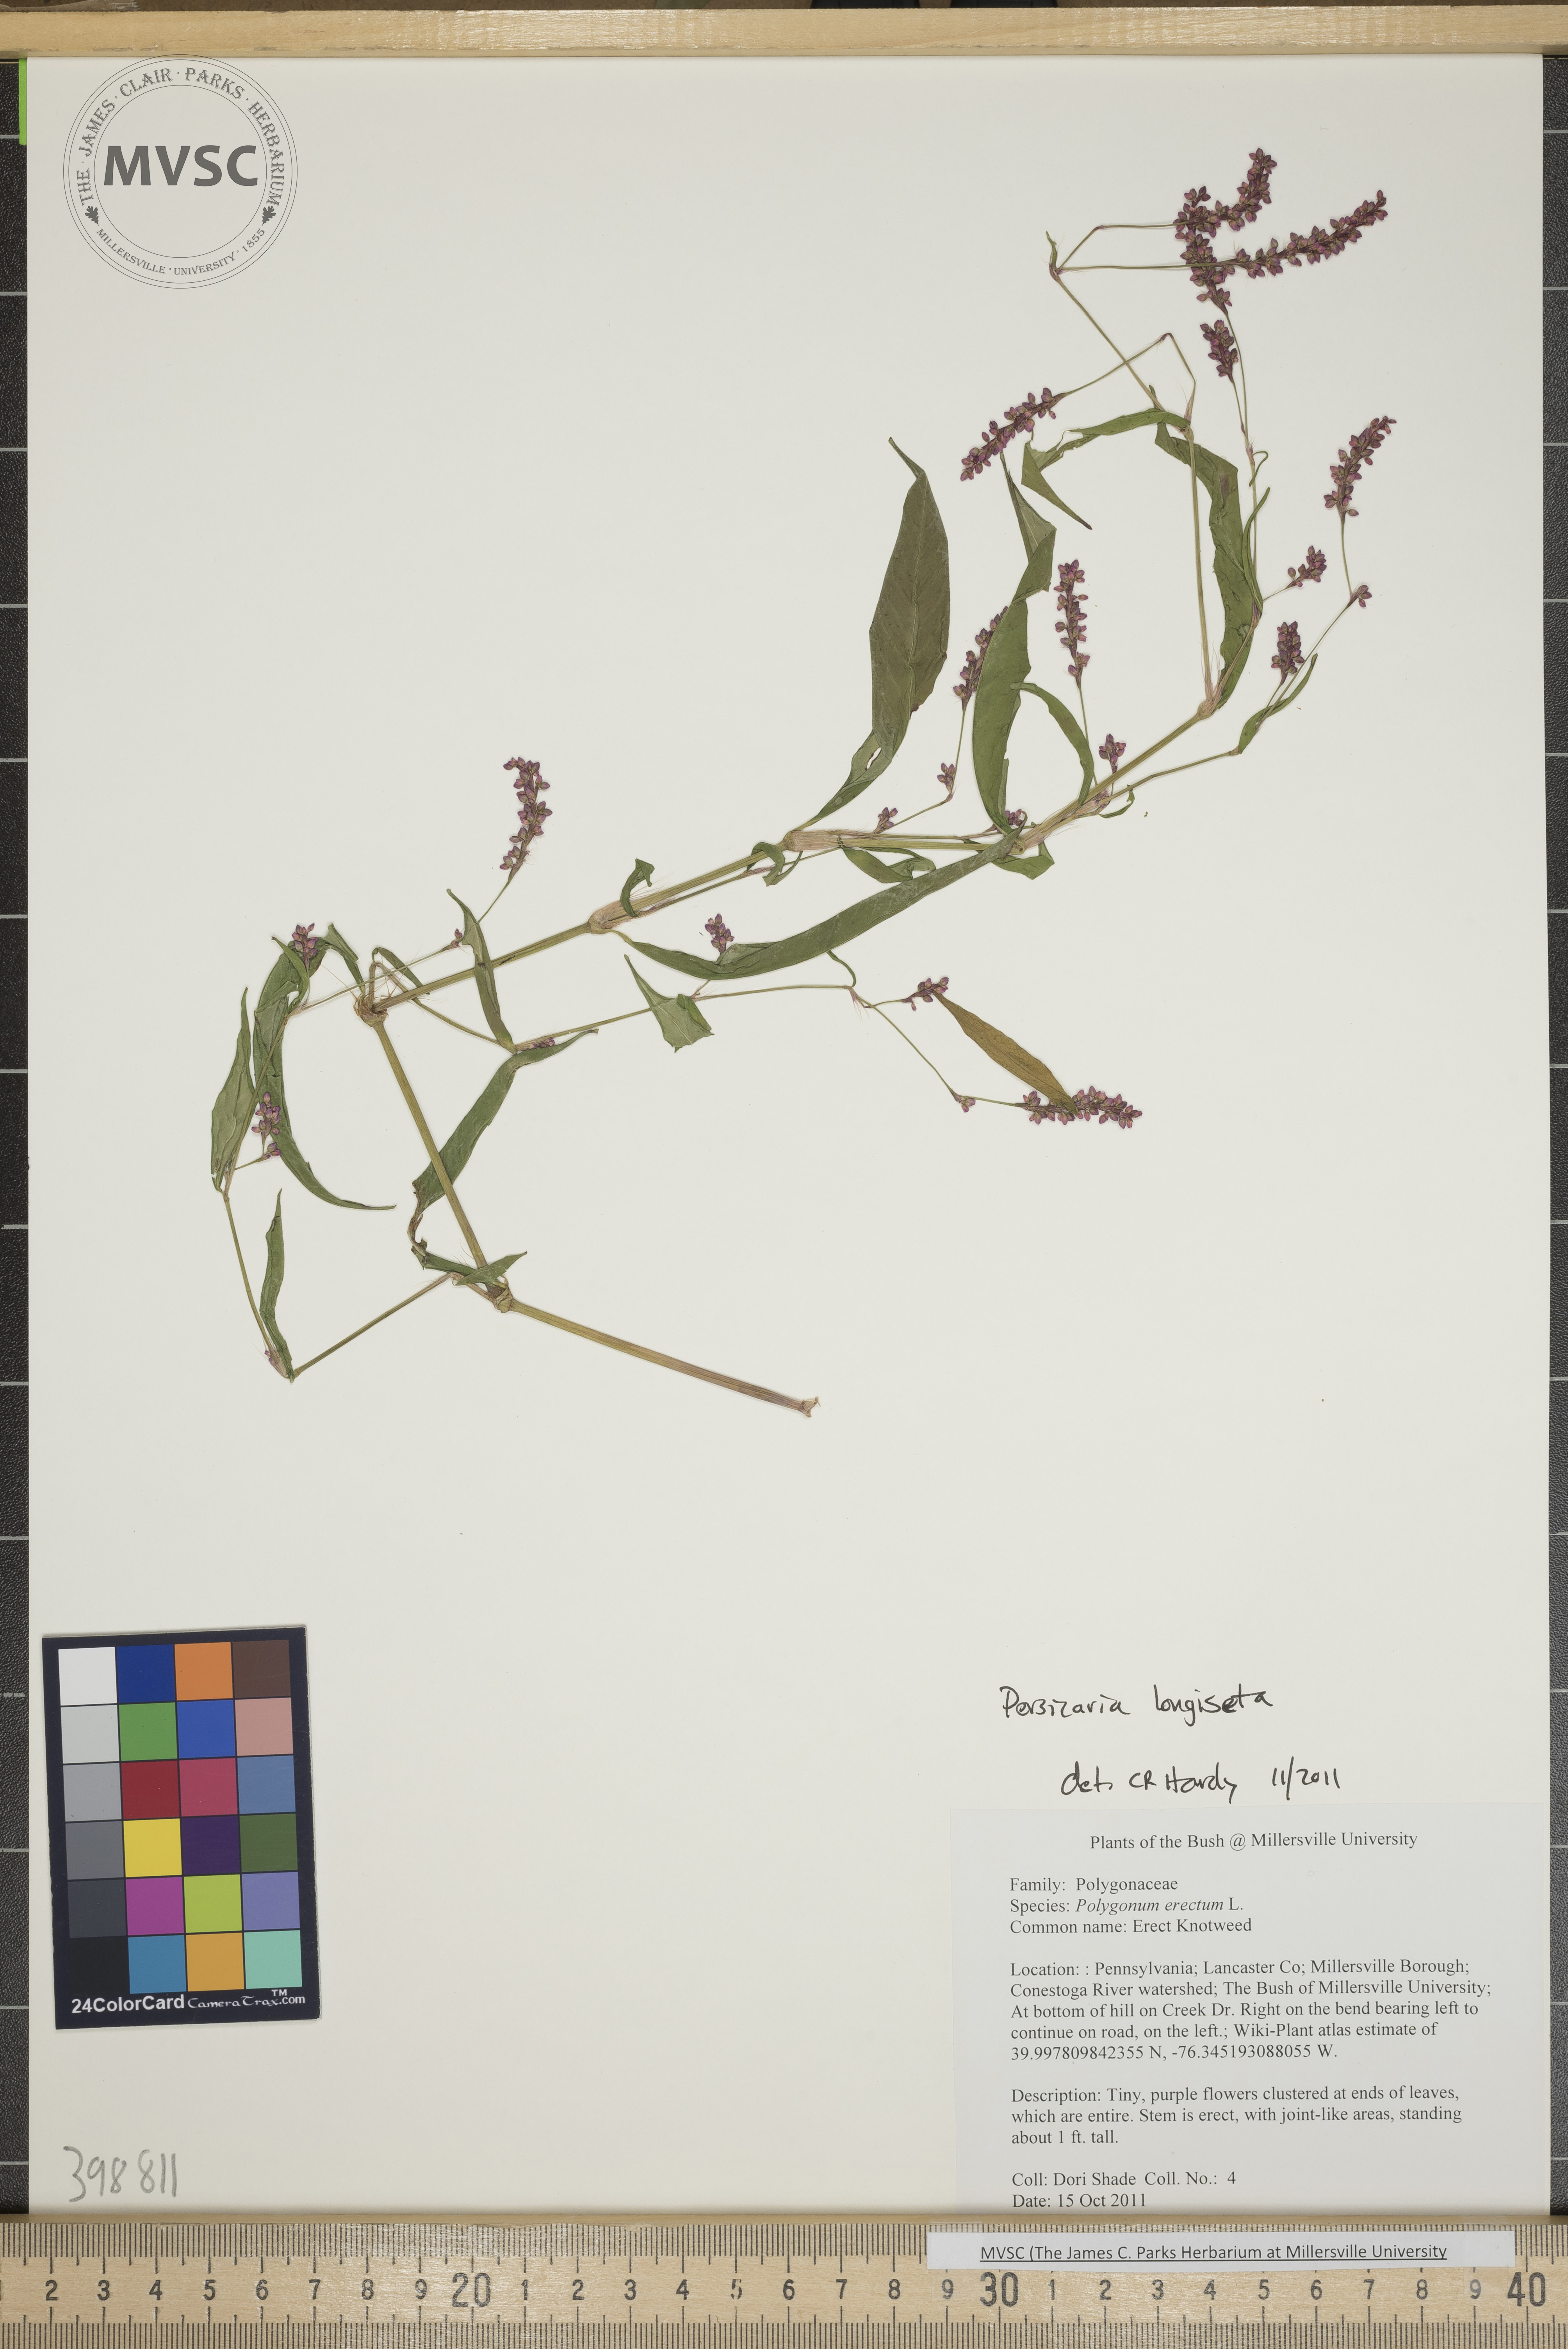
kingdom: Plantae
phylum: Tracheophyta
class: Magnoliopsida
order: Caryophyllales
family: Polygonaceae
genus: Persicaria
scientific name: Persicaria longiseta
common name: Low smartweed
